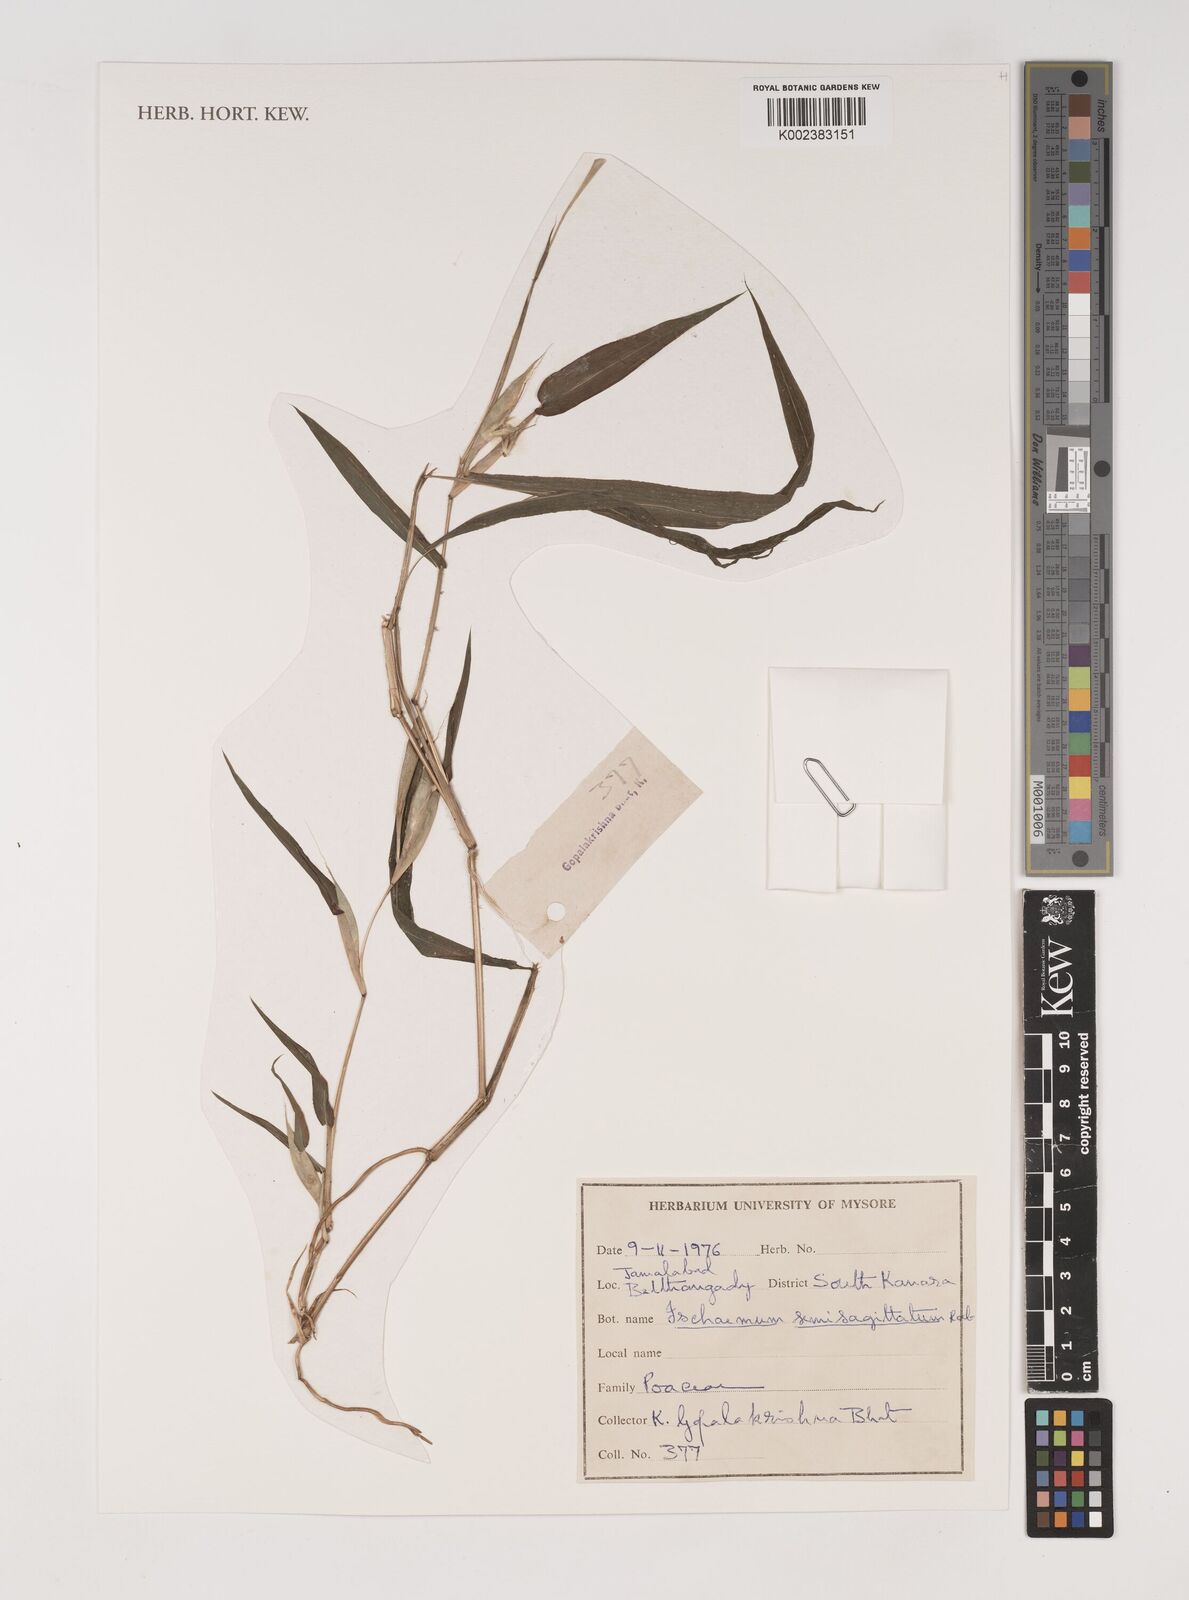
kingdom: Plantae
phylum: Tracheophyta
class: Liliopsida
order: Poales
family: Poaceae
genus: Ischaemum
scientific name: Ischaemum semisagittatum
